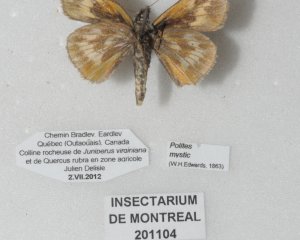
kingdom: Animalia
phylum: Arthropoda
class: Insecta
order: Lepidoptera
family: Hesperiidae
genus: Polites
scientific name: Polites
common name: Long Dash Skipper
